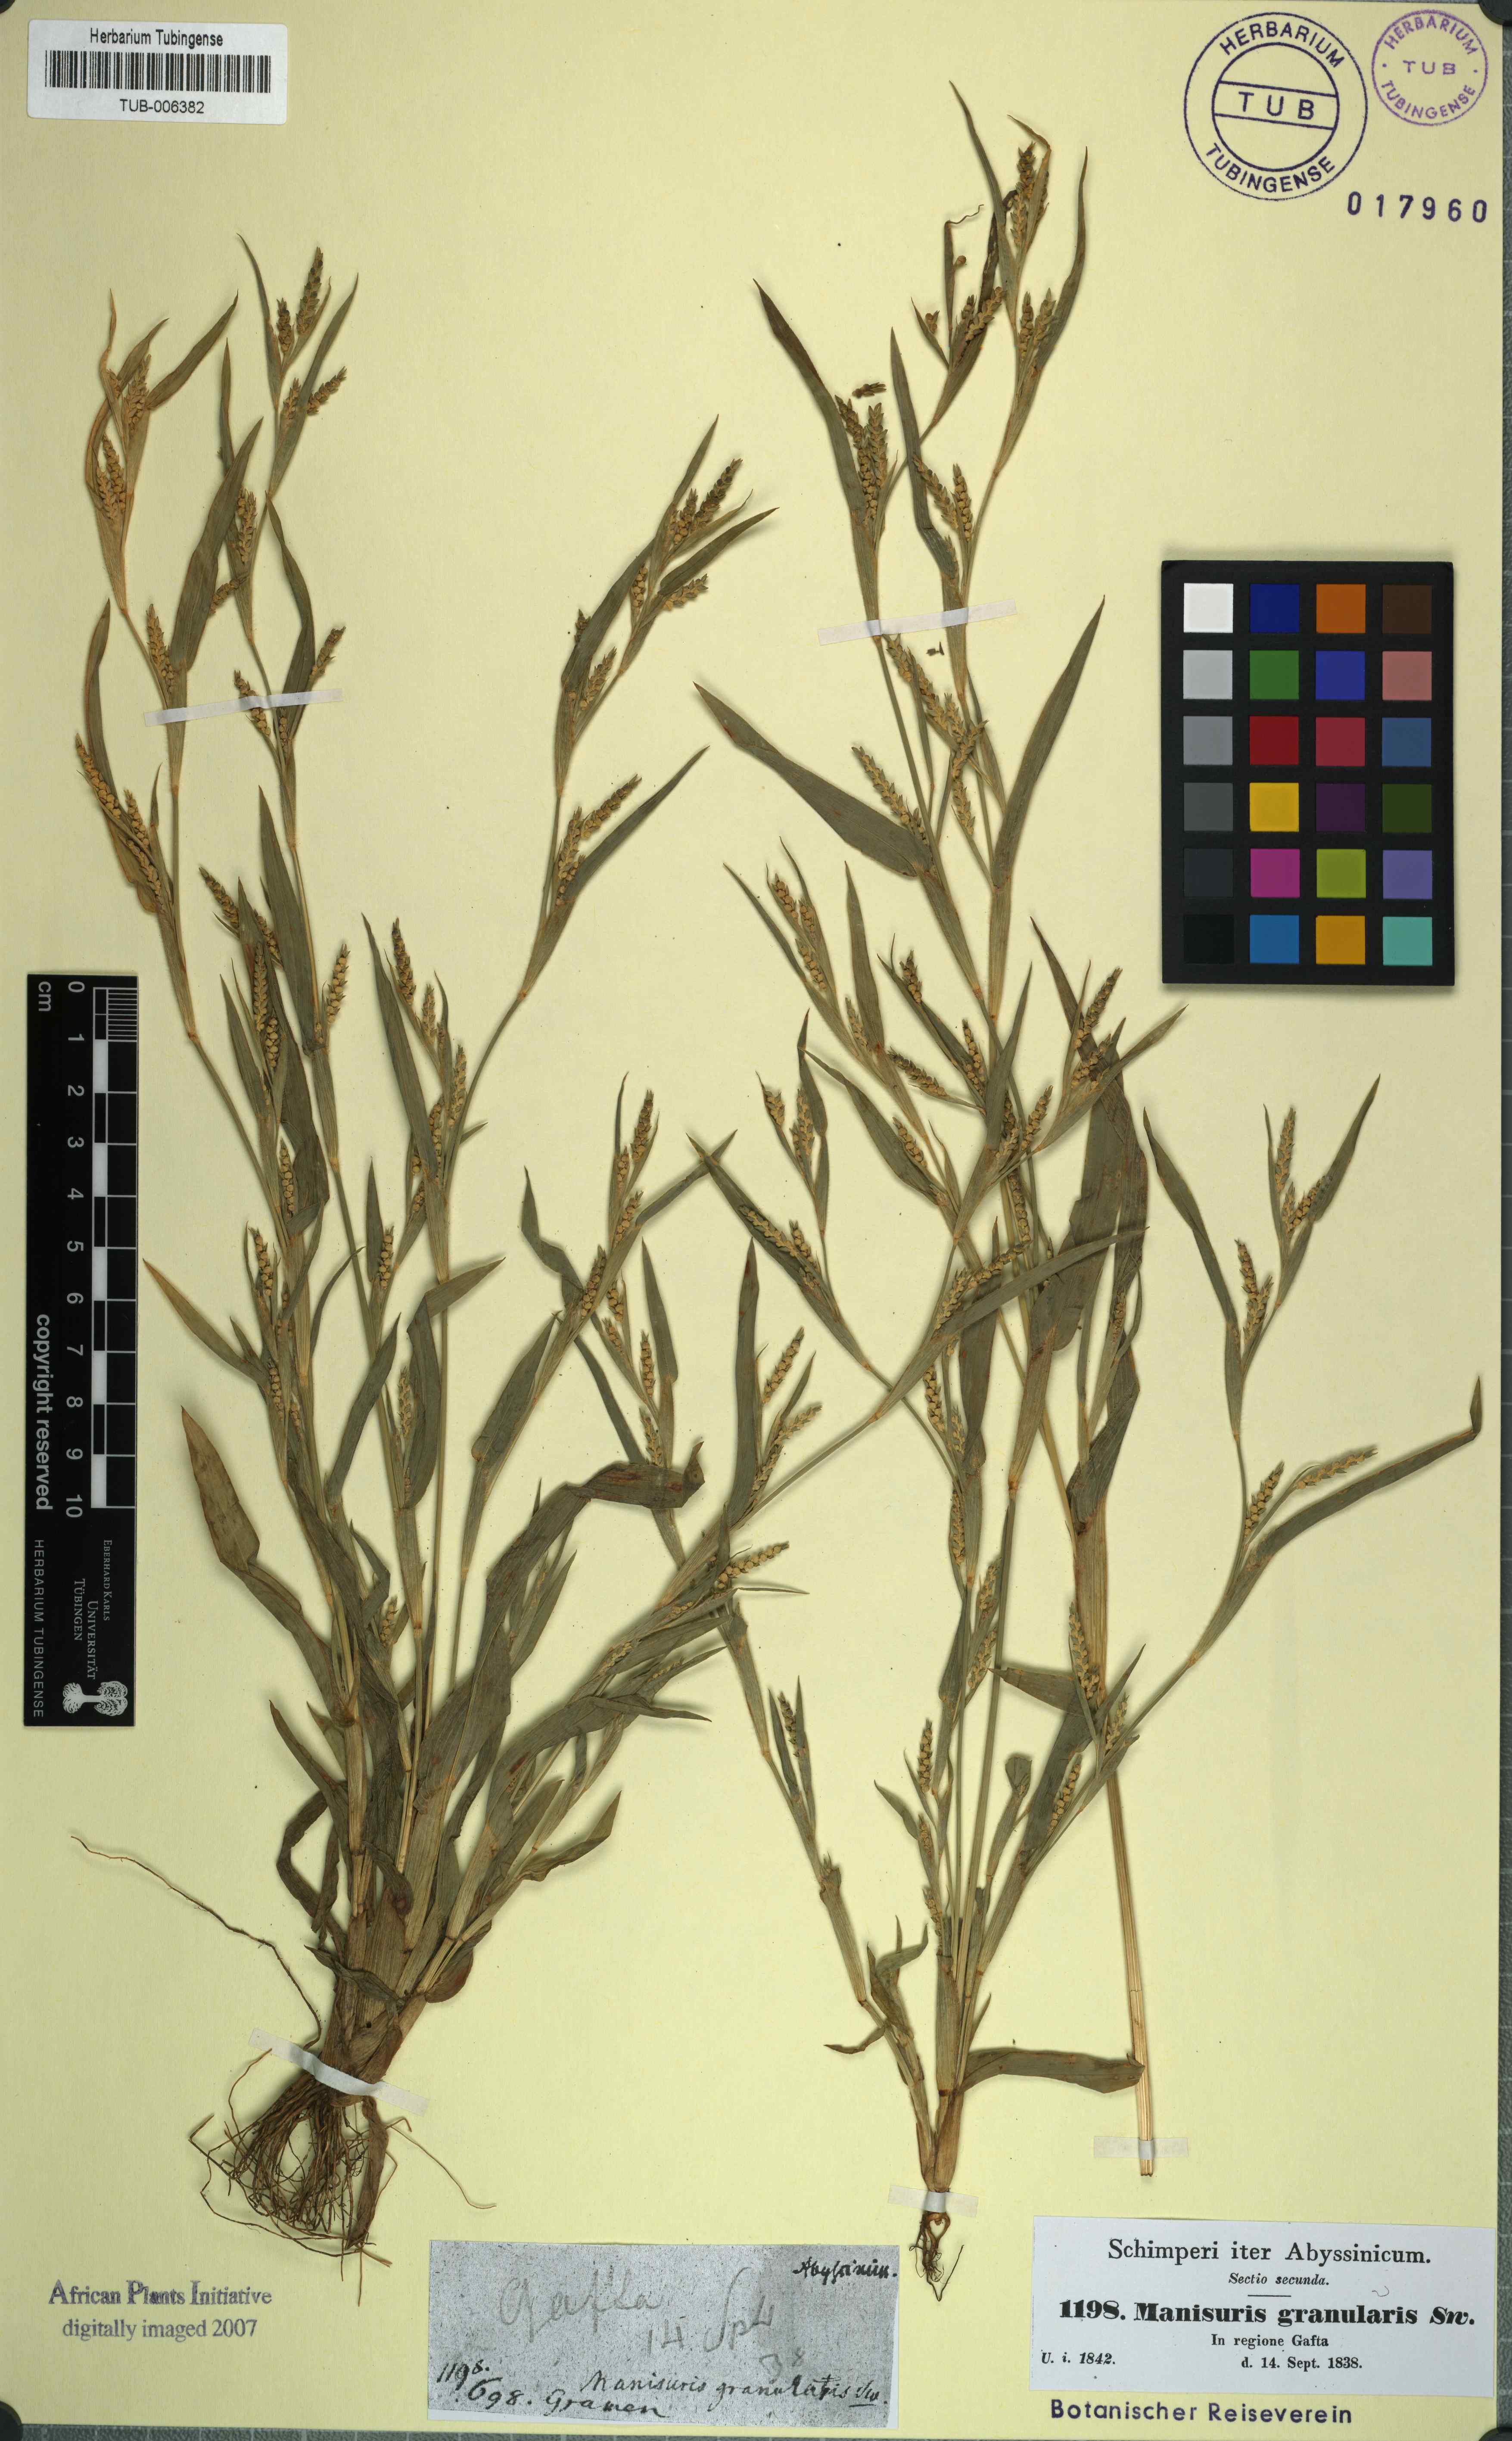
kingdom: Plantae
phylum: Tracheophyta
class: Liliopsida
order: Poales
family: Poaceae
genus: Hackelochloa
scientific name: Hackelochloa granularis
